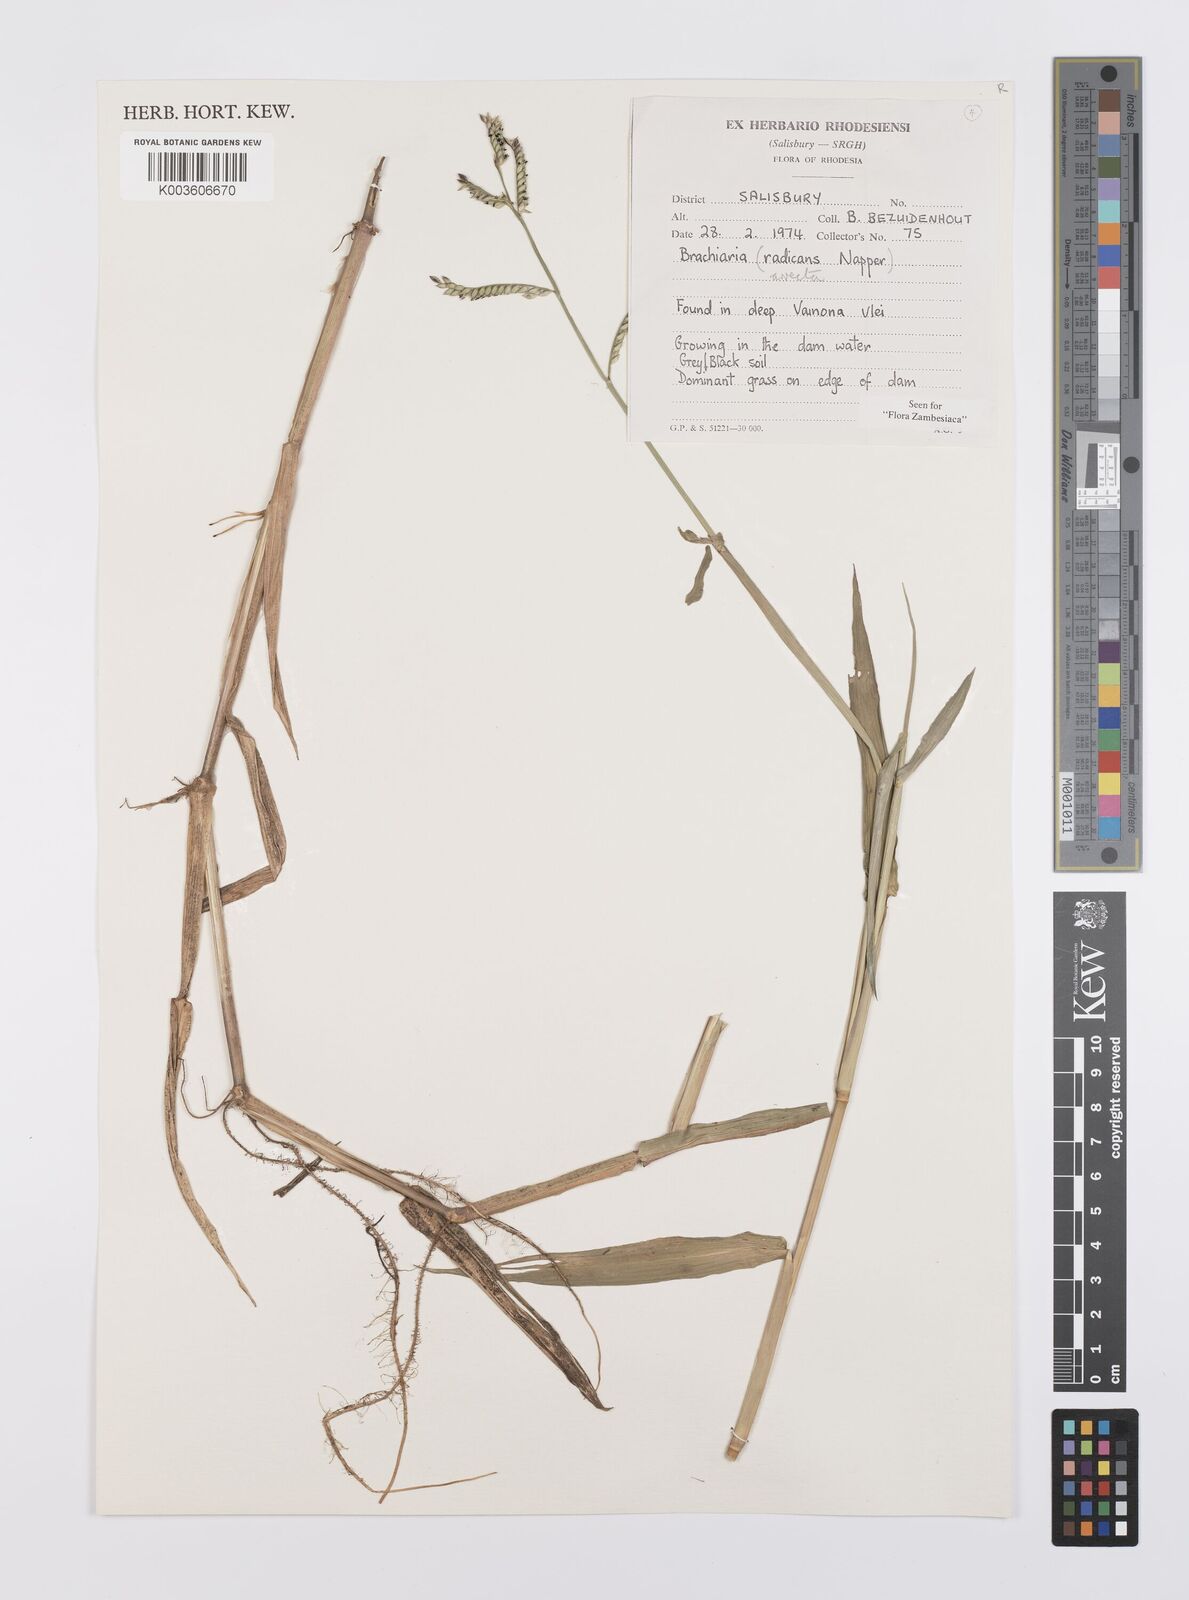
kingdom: Plantae
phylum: Tracheophyta
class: Liliopsida
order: Poales
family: Poaceae
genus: Urochloa
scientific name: Urochloa arrecta
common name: African signalgrass
